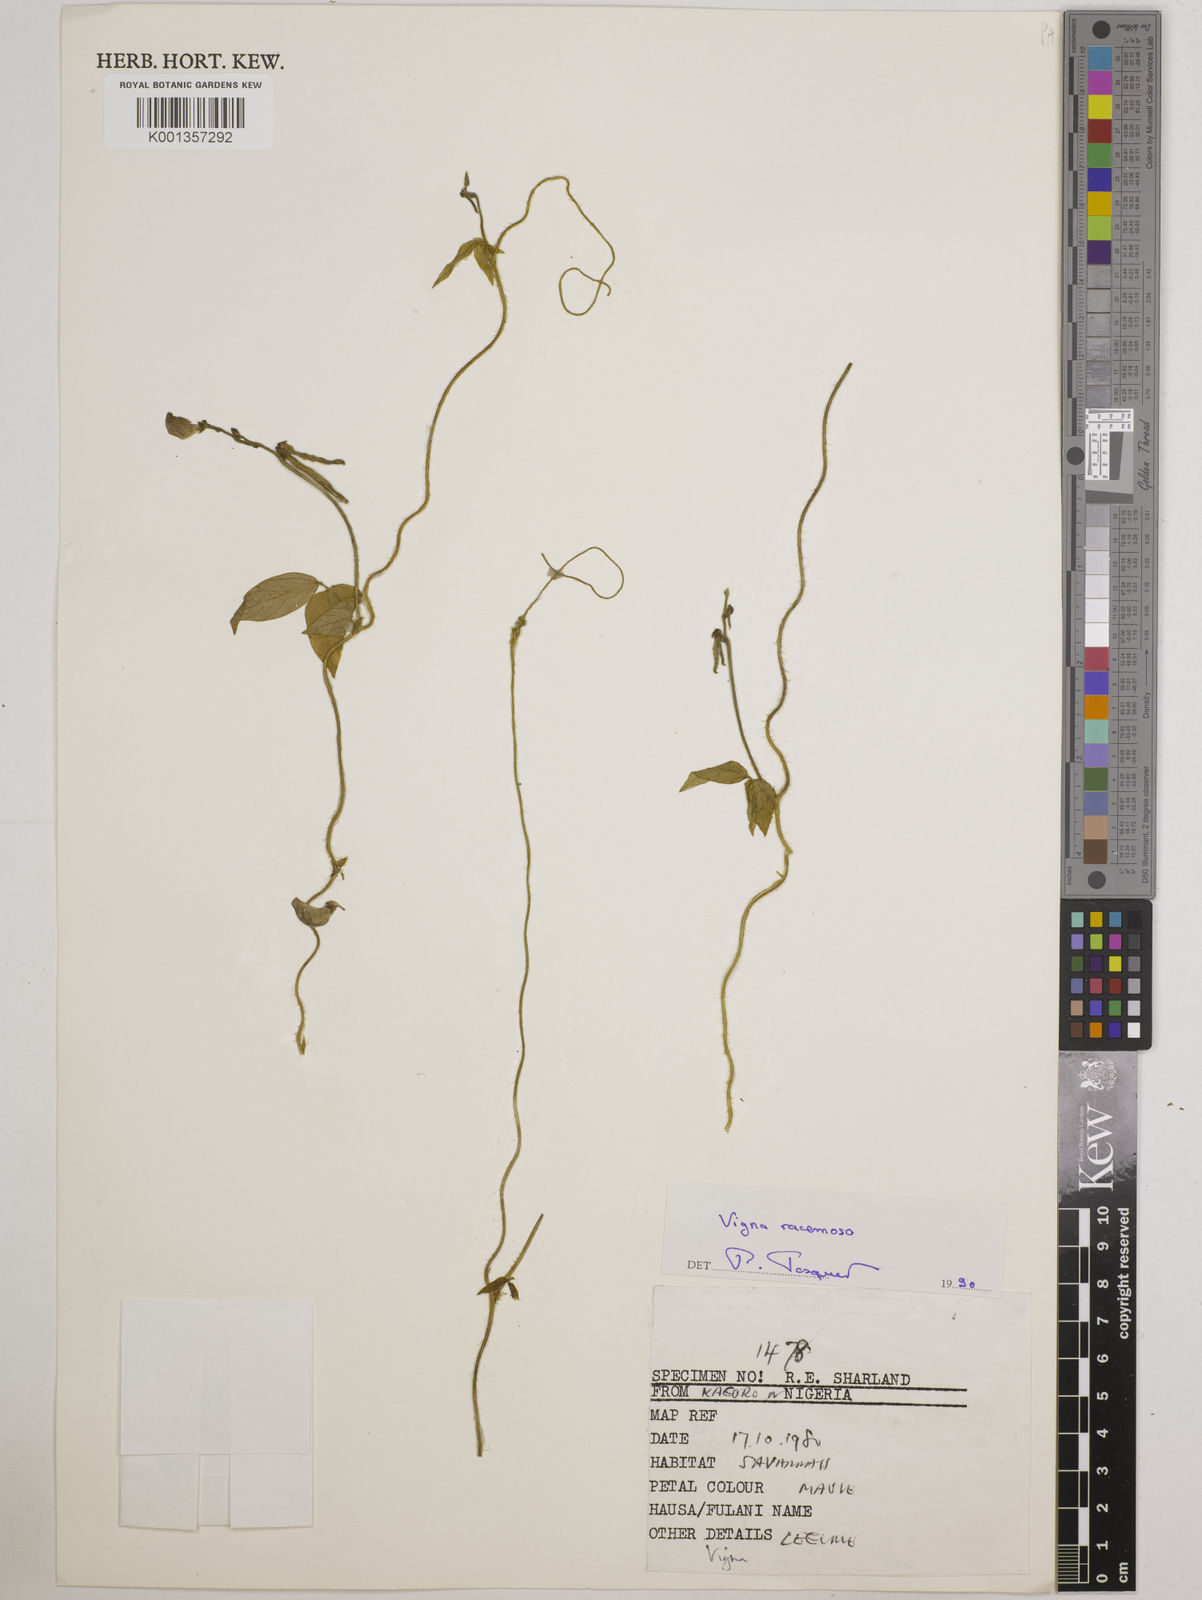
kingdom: Plantae
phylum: Tracheophyta
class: Magnoliopsida
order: Fabales
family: Fabaceae
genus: Vigna
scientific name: Vigna racemosa
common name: Beans not eaten
